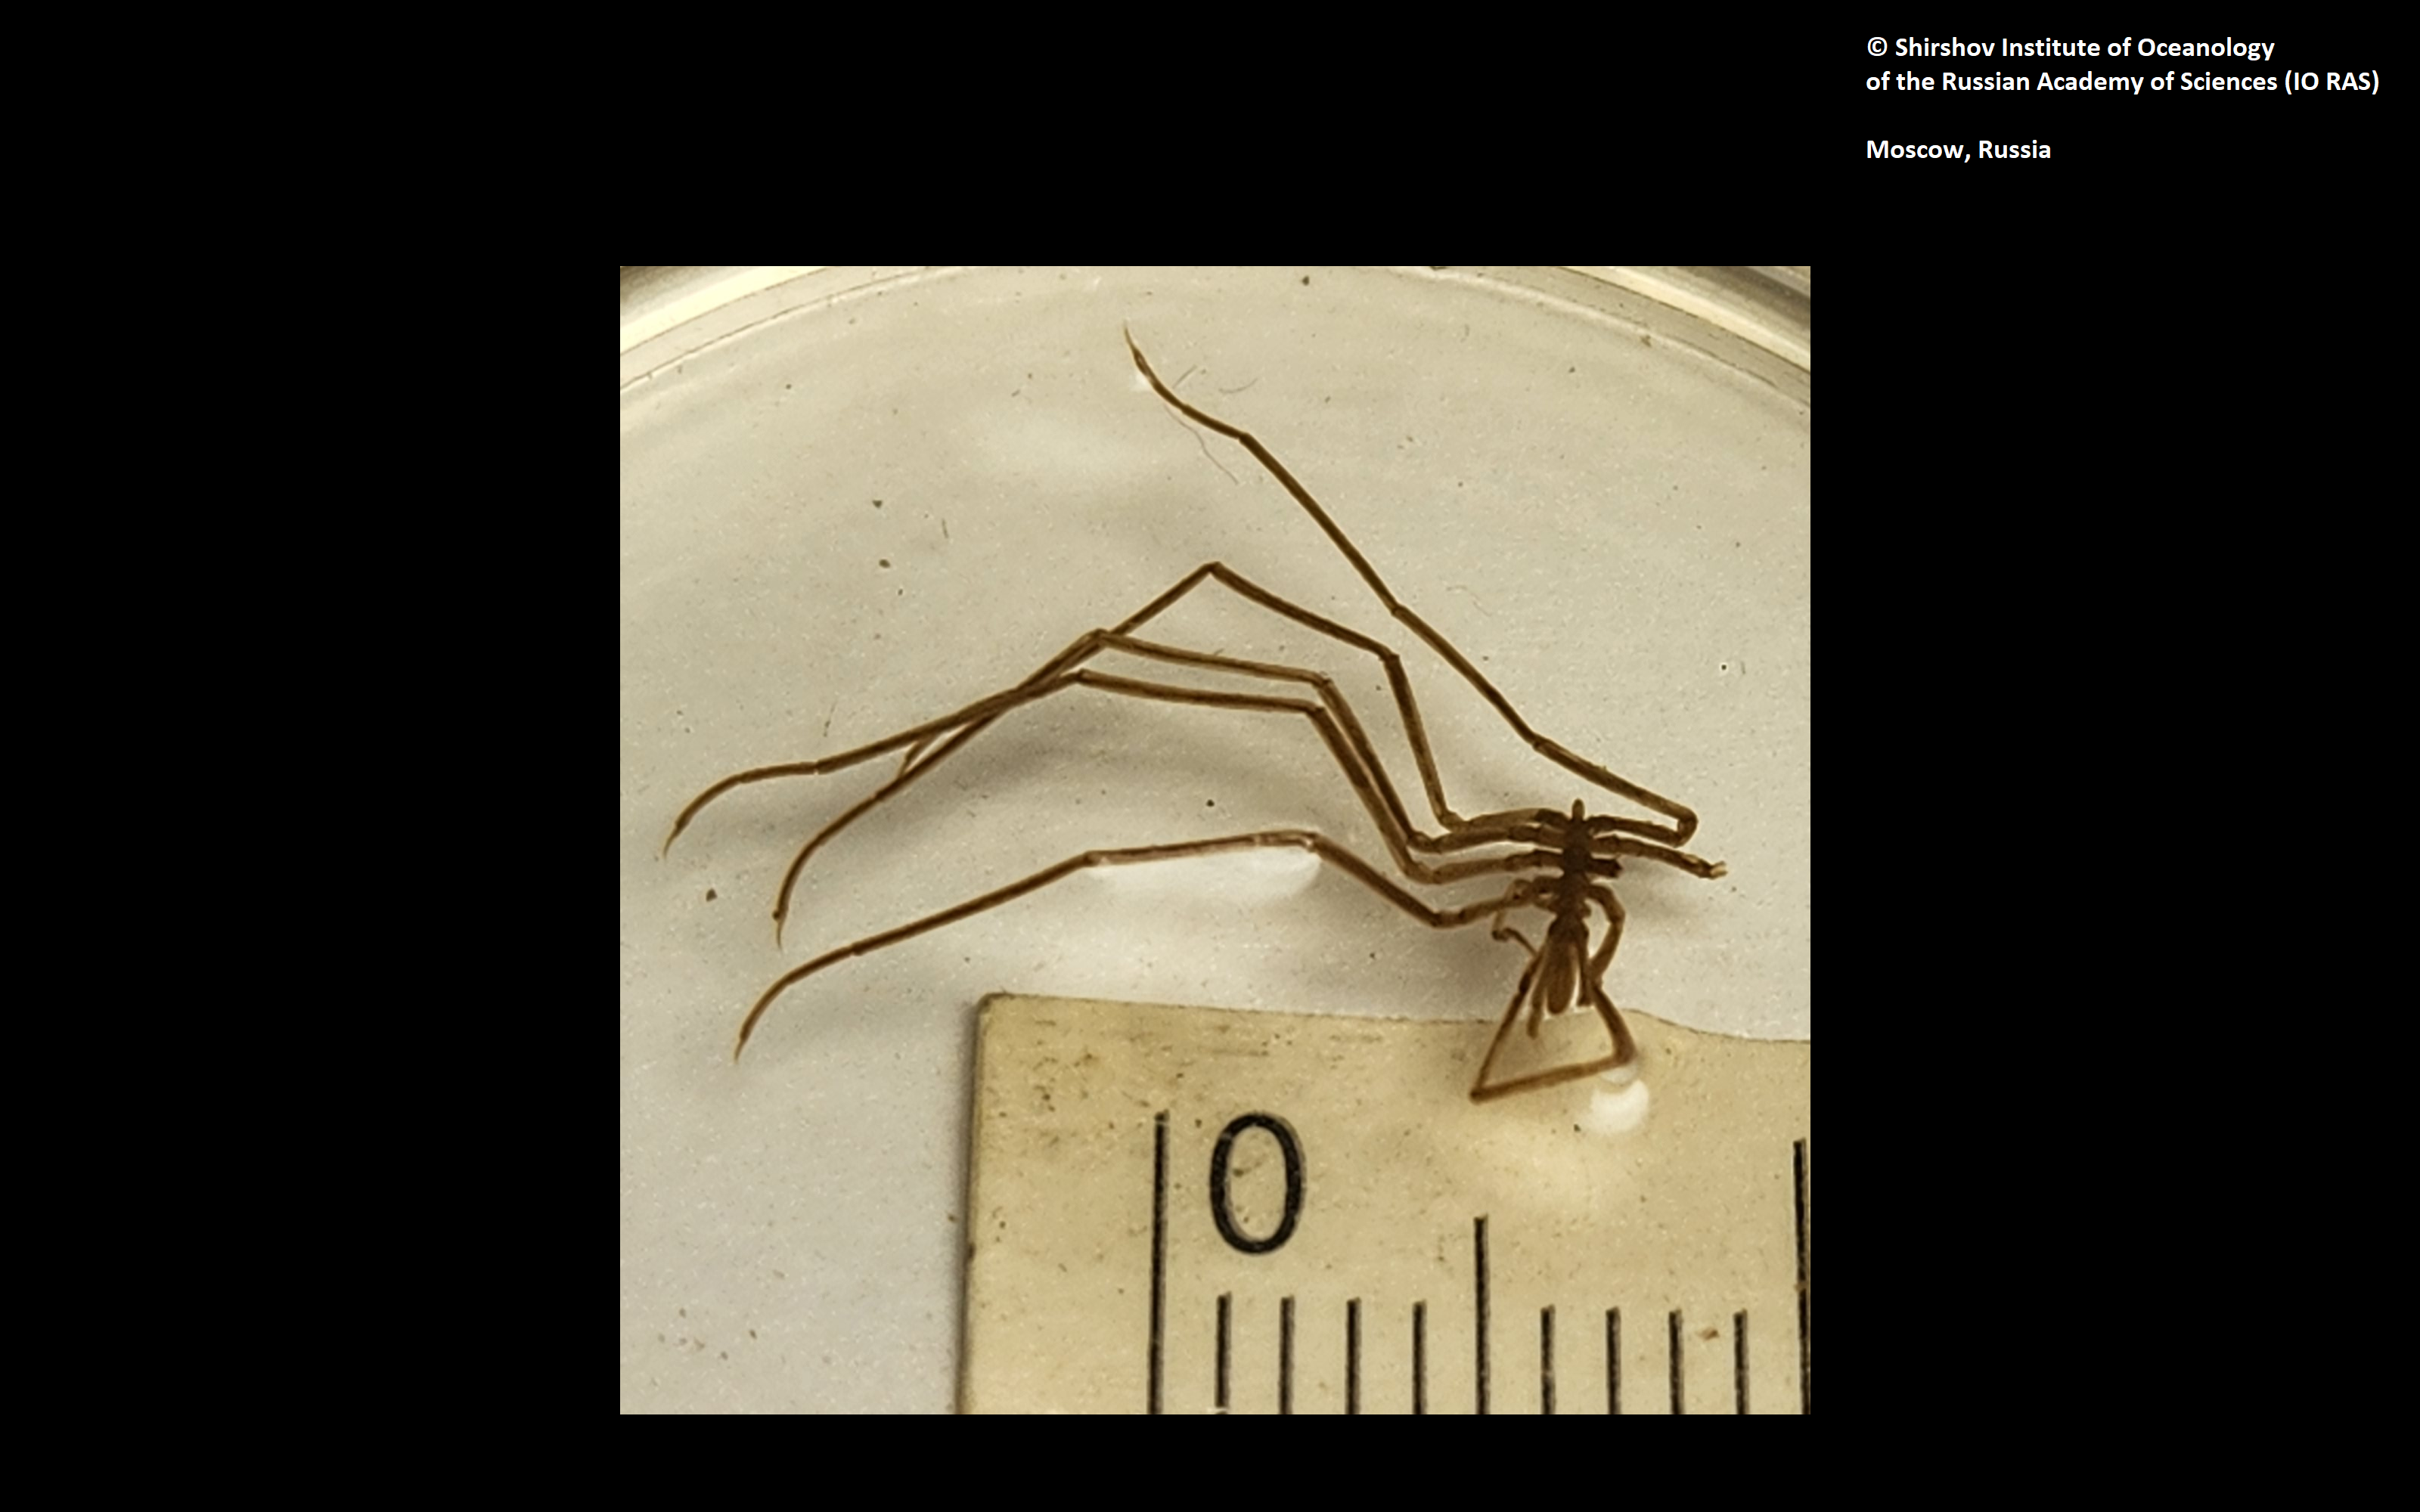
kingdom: Animalia
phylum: Arthropoda
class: Pycnogonida
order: Pantopoda
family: Nymphonidae
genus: Heteronymphon
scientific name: Heteronymphon profundum
